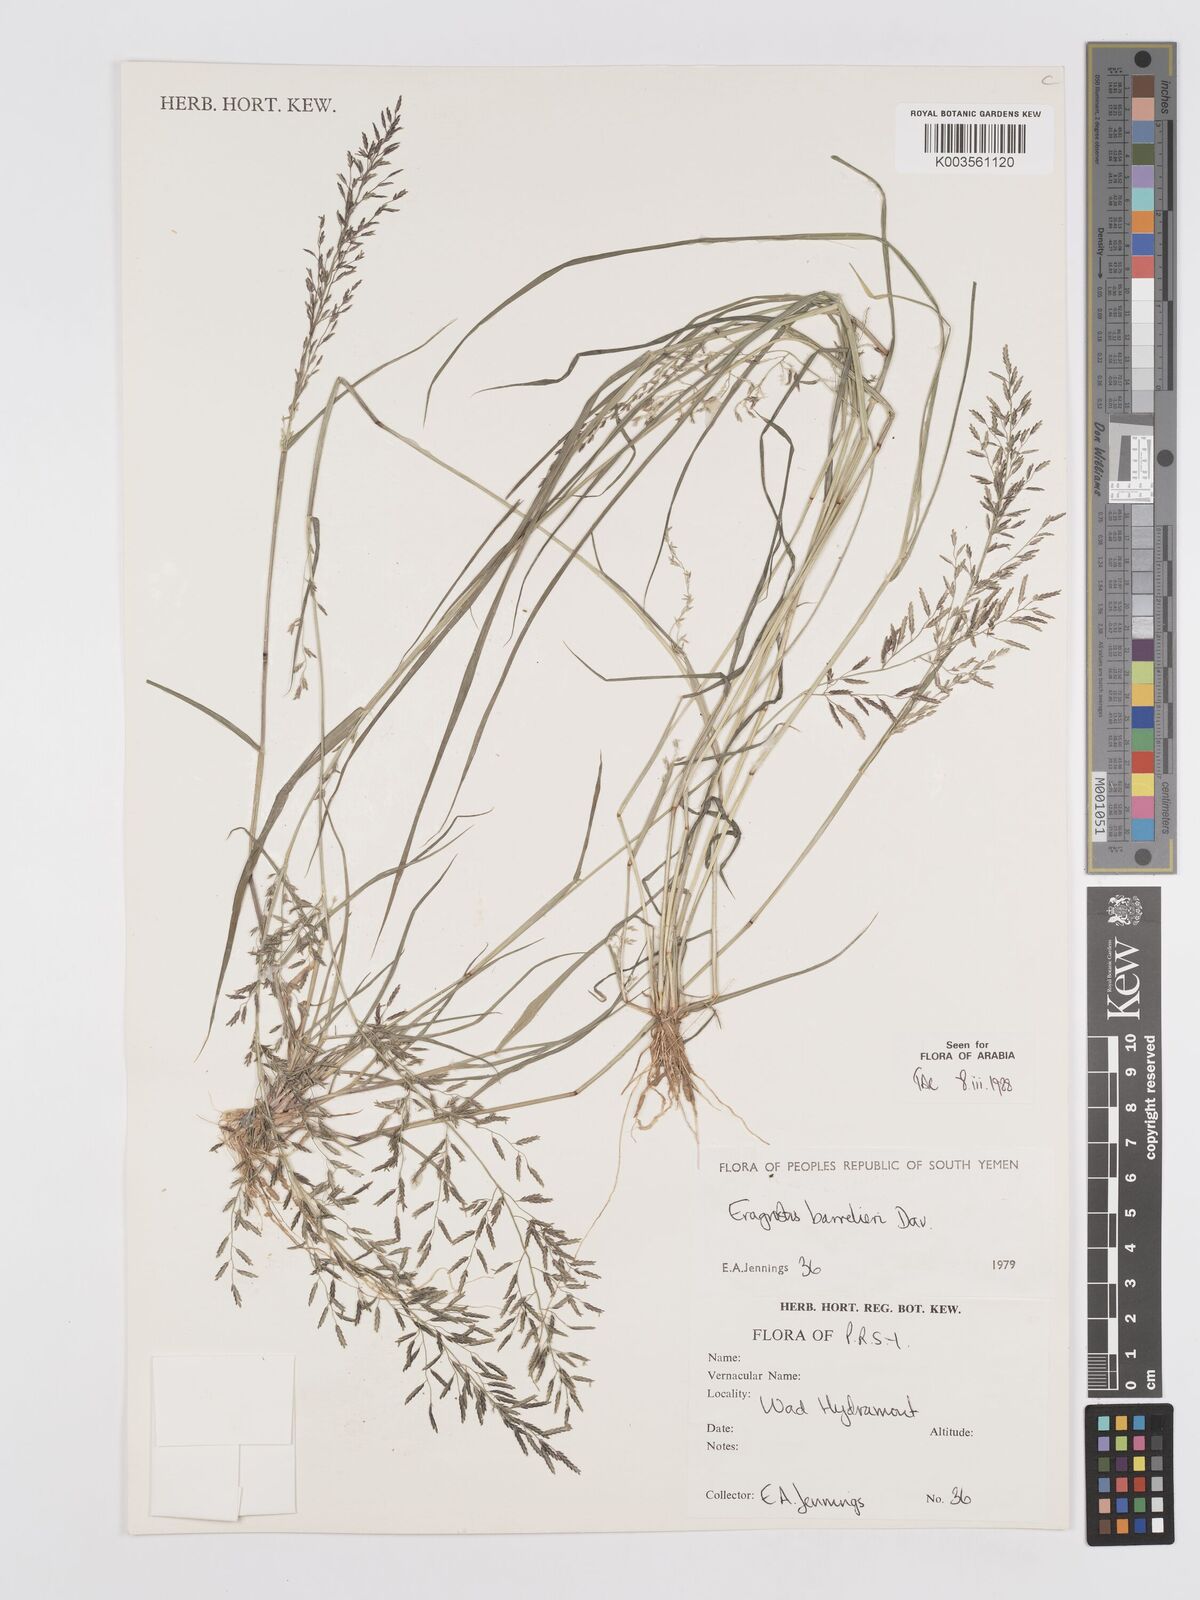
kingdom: Plantae
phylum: Tracheophyta
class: Liliopsida
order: Poales
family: Poaceae
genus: Eragrostis
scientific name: Eragrostis barrelieri
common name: Mediterranean lovegrass
